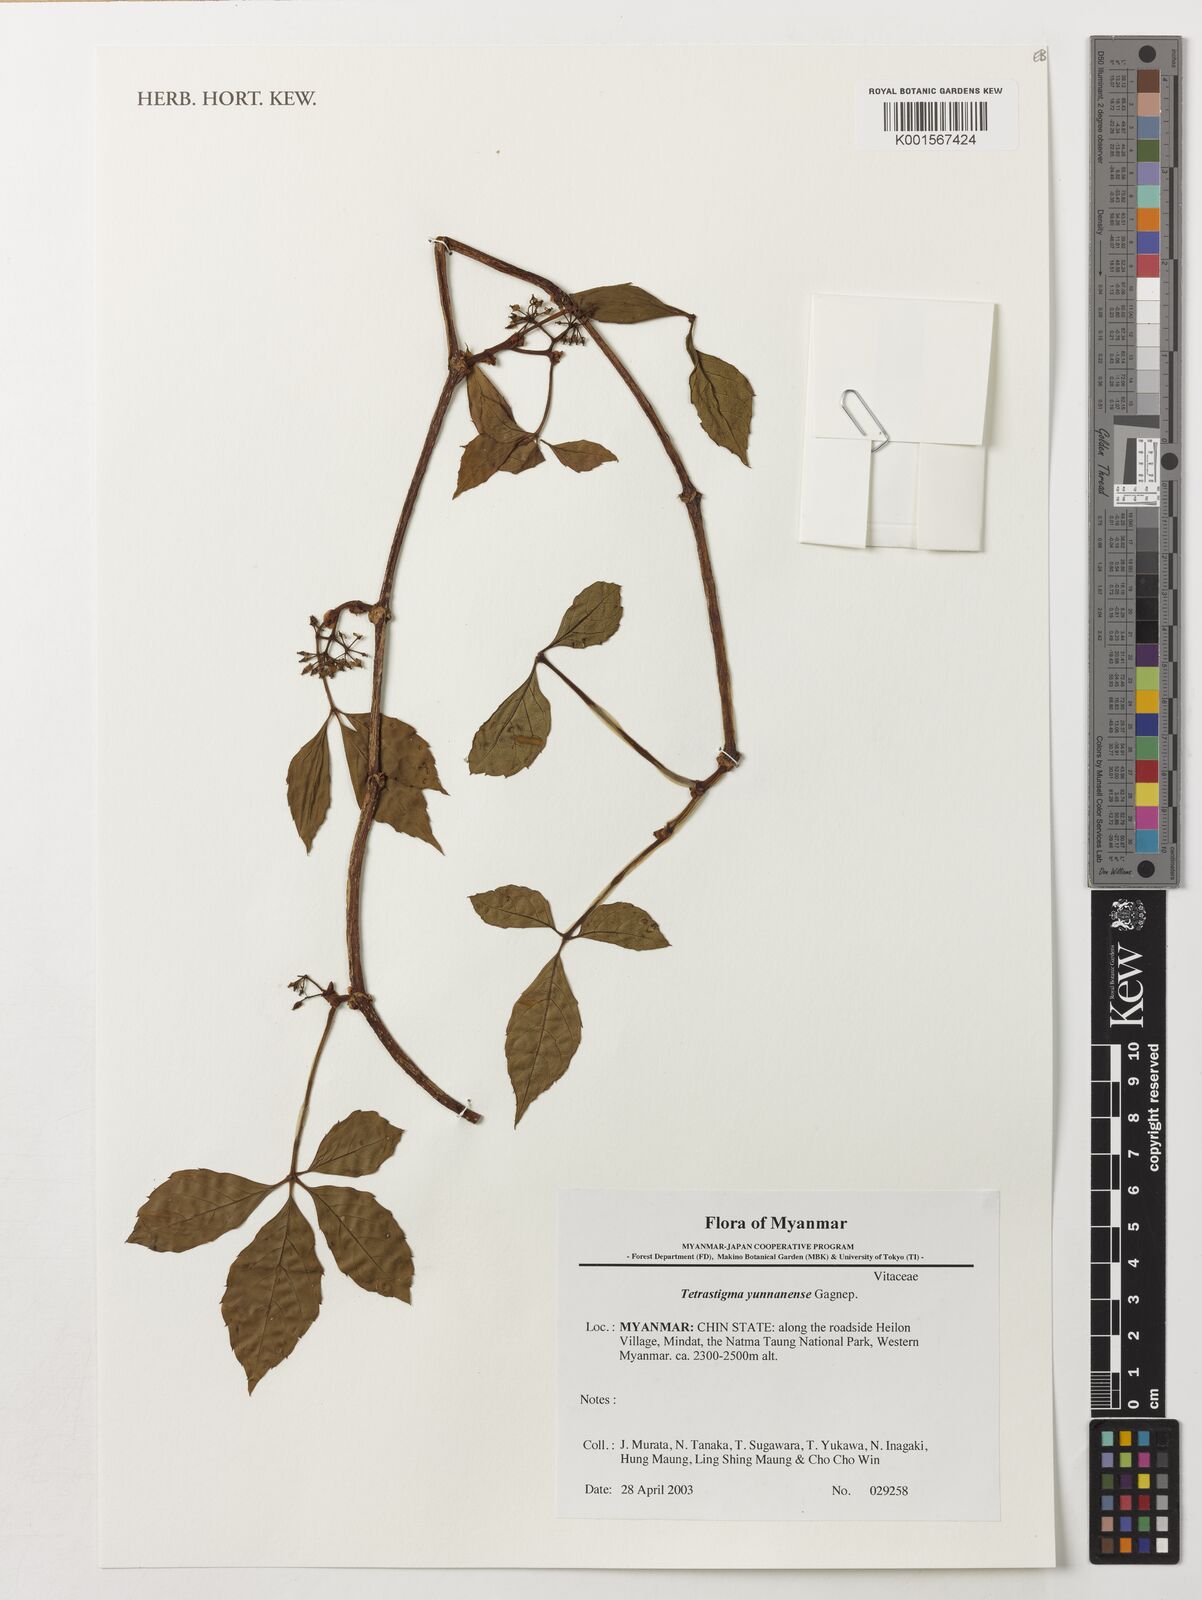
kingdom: Plantae
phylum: Tracheophyta
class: Magnoliopsida
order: Vitales
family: Vitaceae
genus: Tetrastigma
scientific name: Tetrastigma yunnanense
